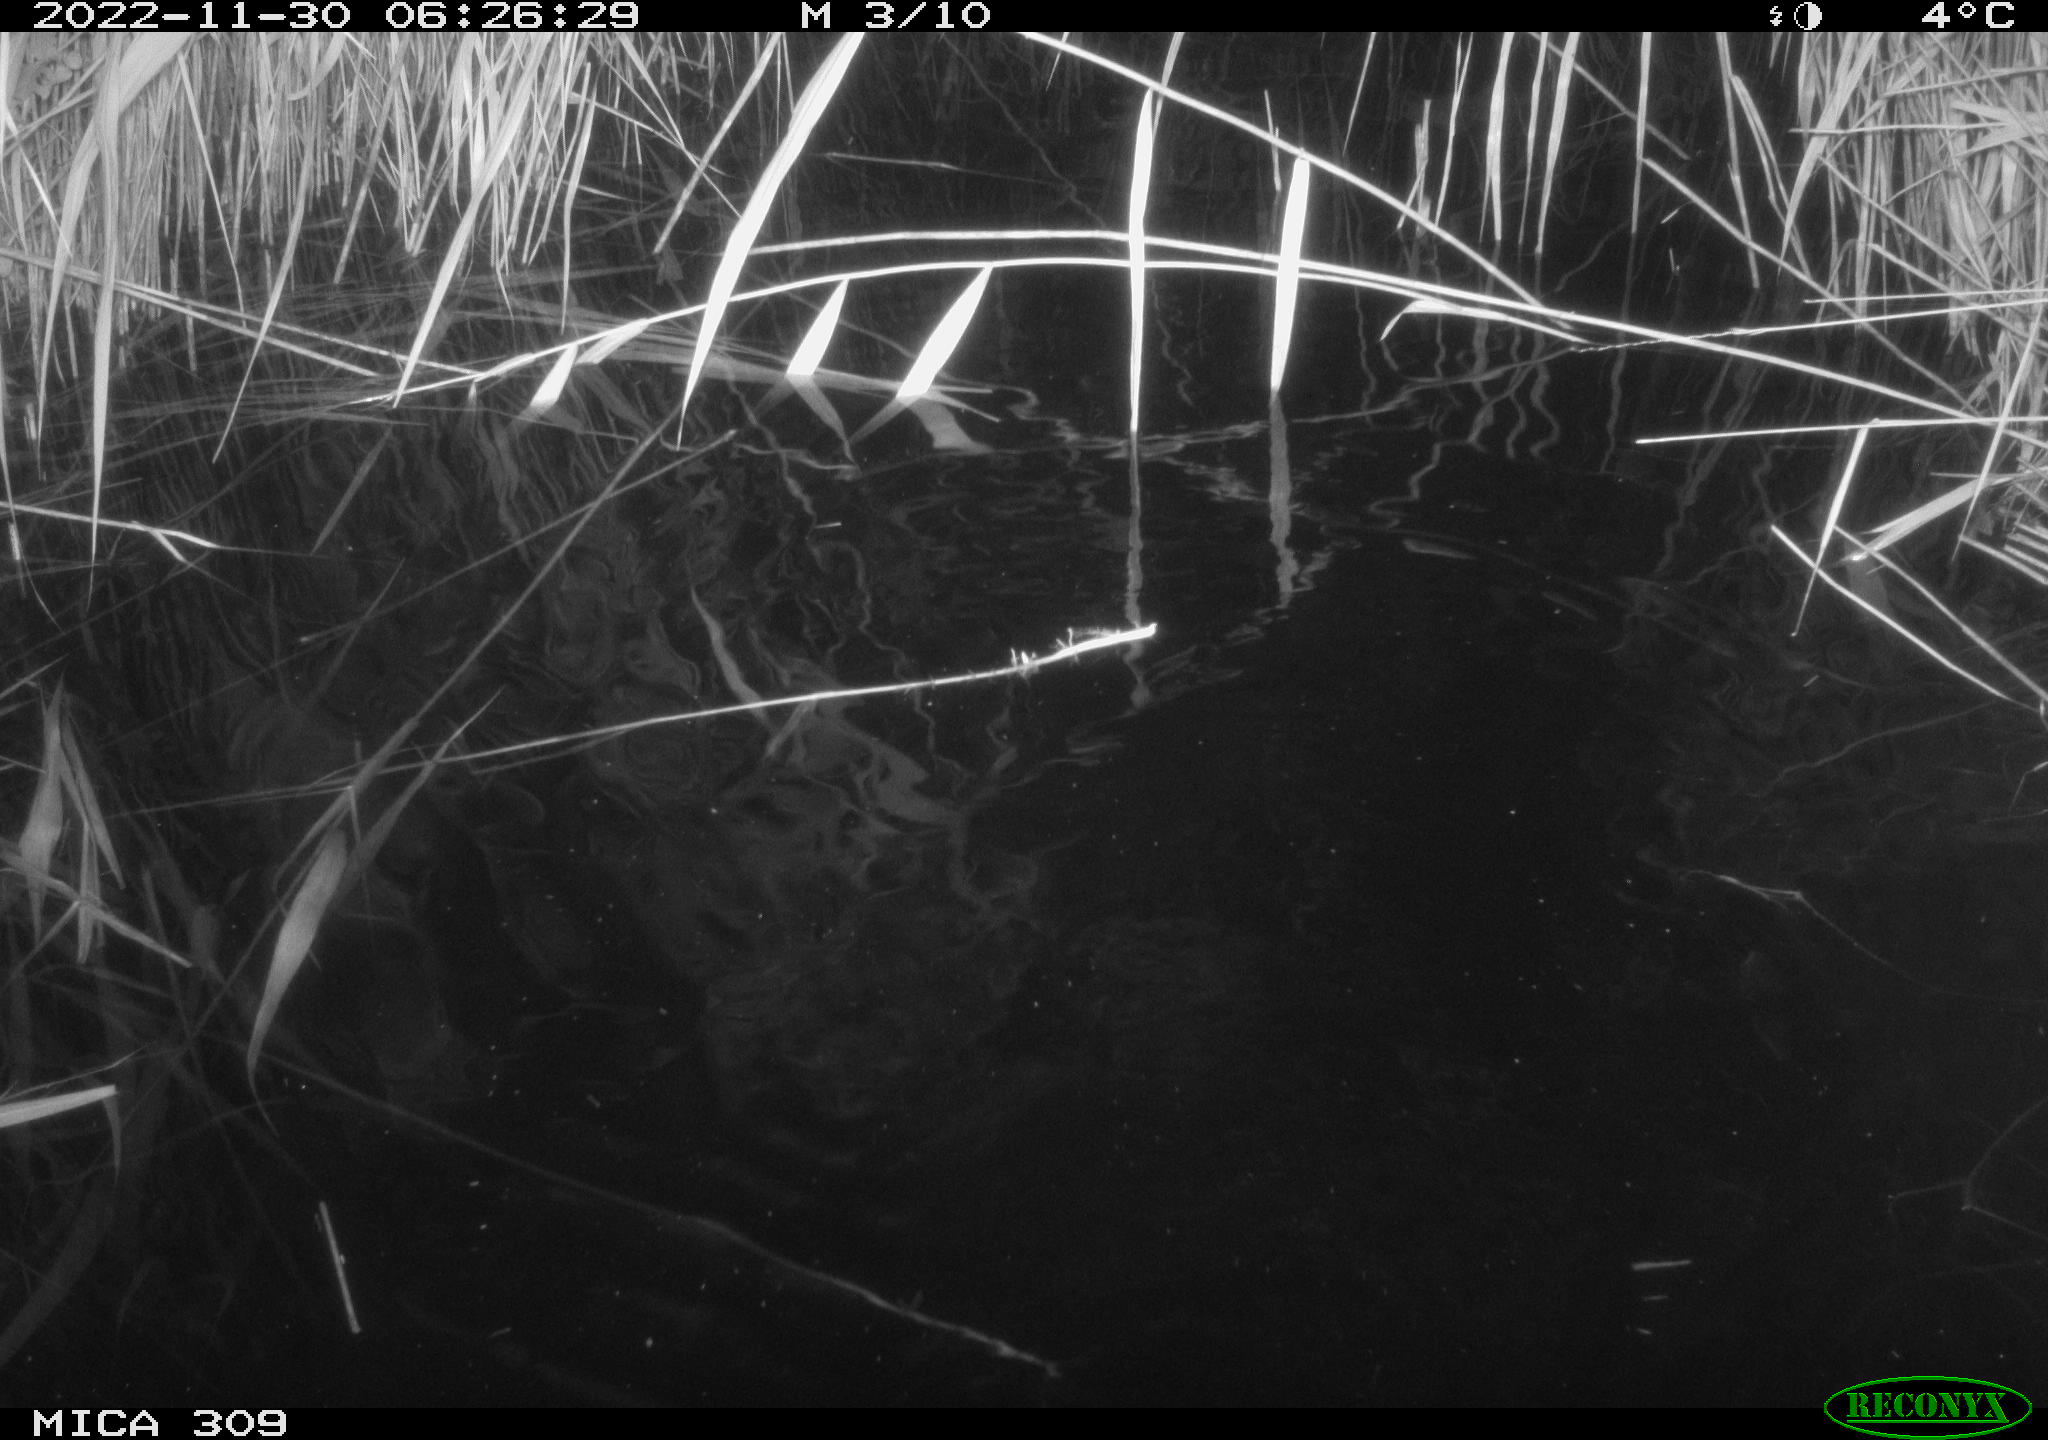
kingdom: Animalia
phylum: Chordata
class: Mammalia
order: Rodentia
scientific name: Rodentia
